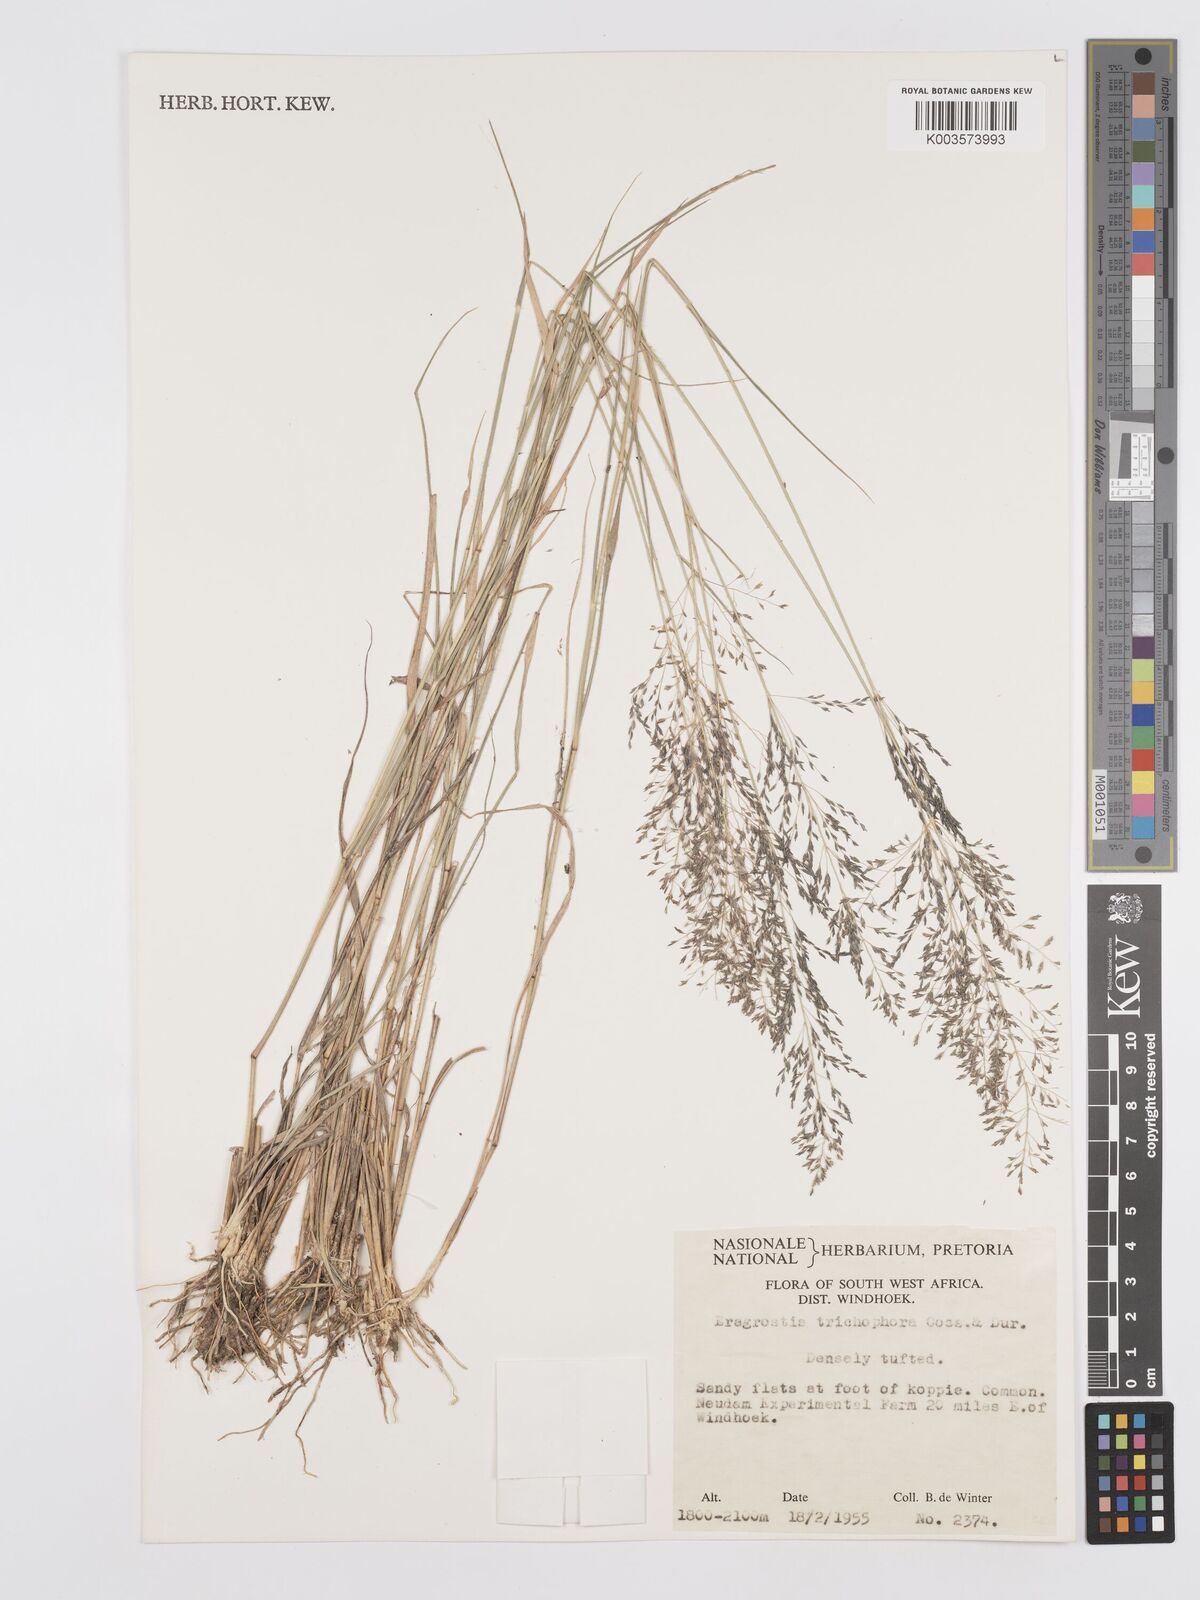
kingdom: Plantae
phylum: Tracheophyta
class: Liliopsida
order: Poales
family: Poaceae
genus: Eragrostis
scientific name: Eragrostis cylindriflora
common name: Cylinderflower lovegrass
